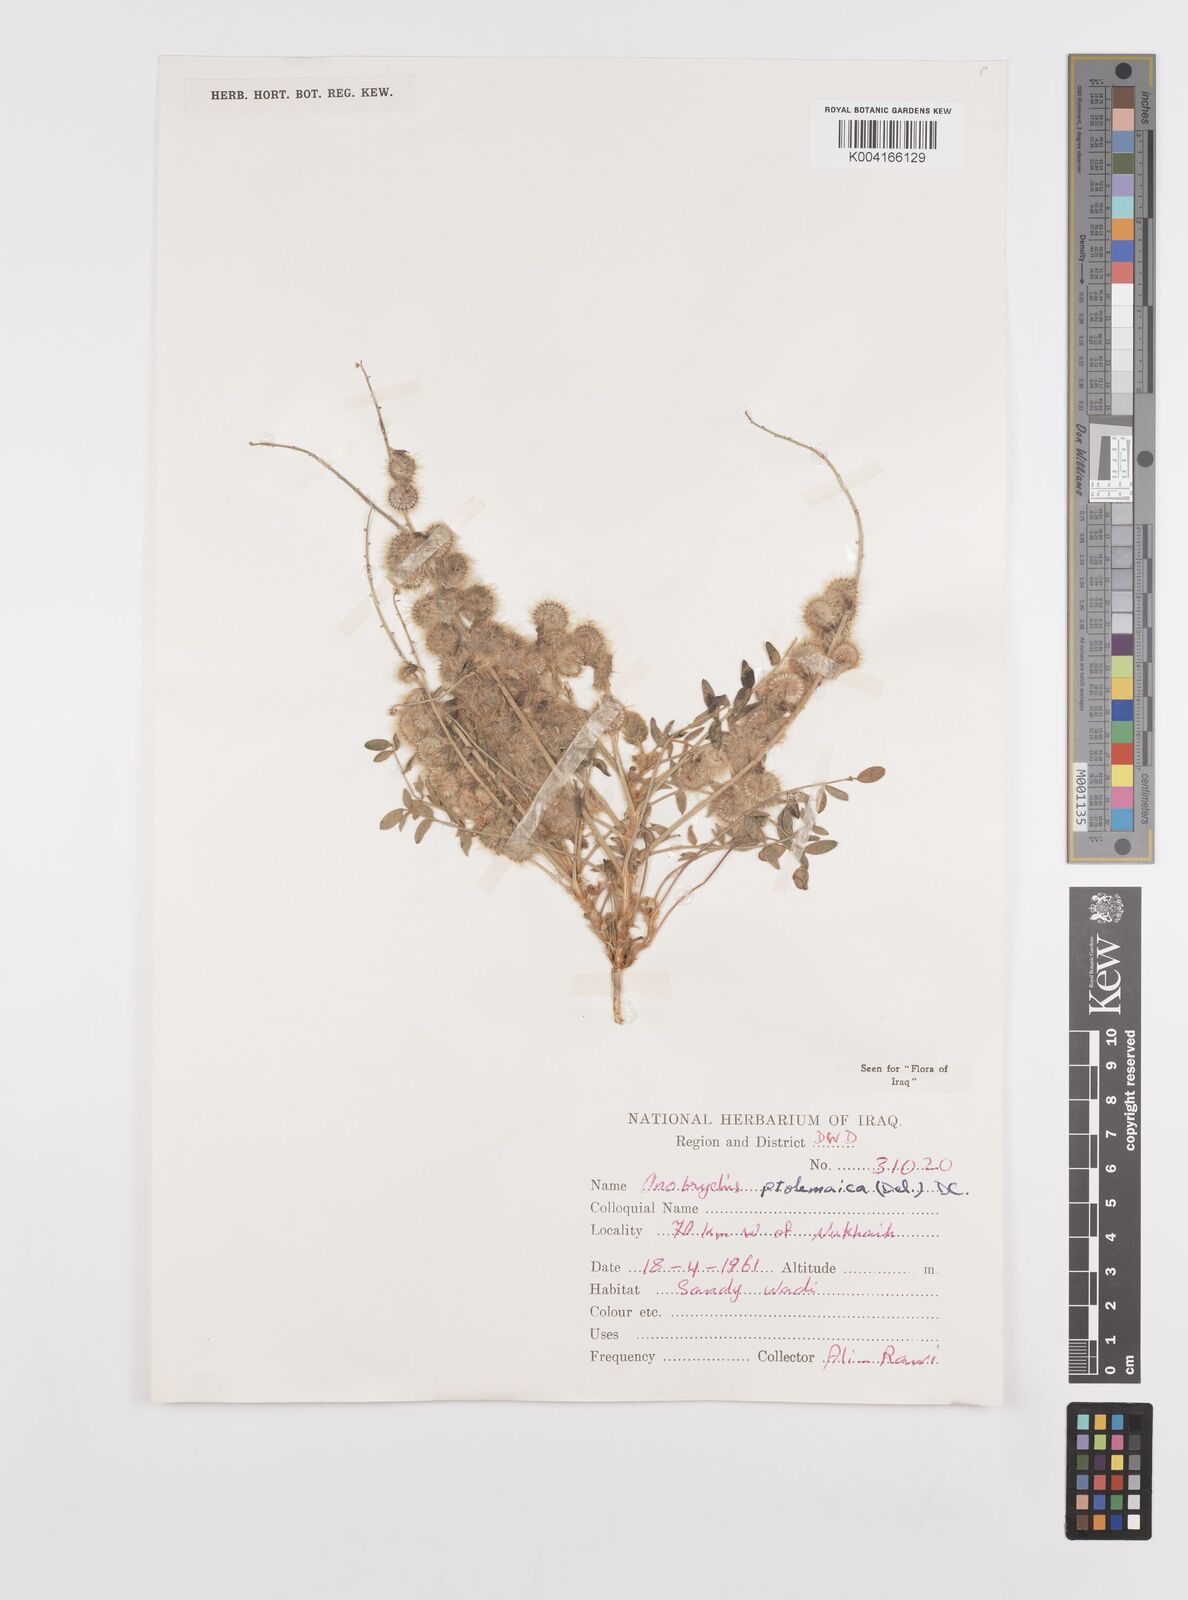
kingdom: Plantae
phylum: Tracheophyta
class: Magnoliopsida
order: Fabales
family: Fabaceae
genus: Onobrychis
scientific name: Onobrychis ptolemaica
